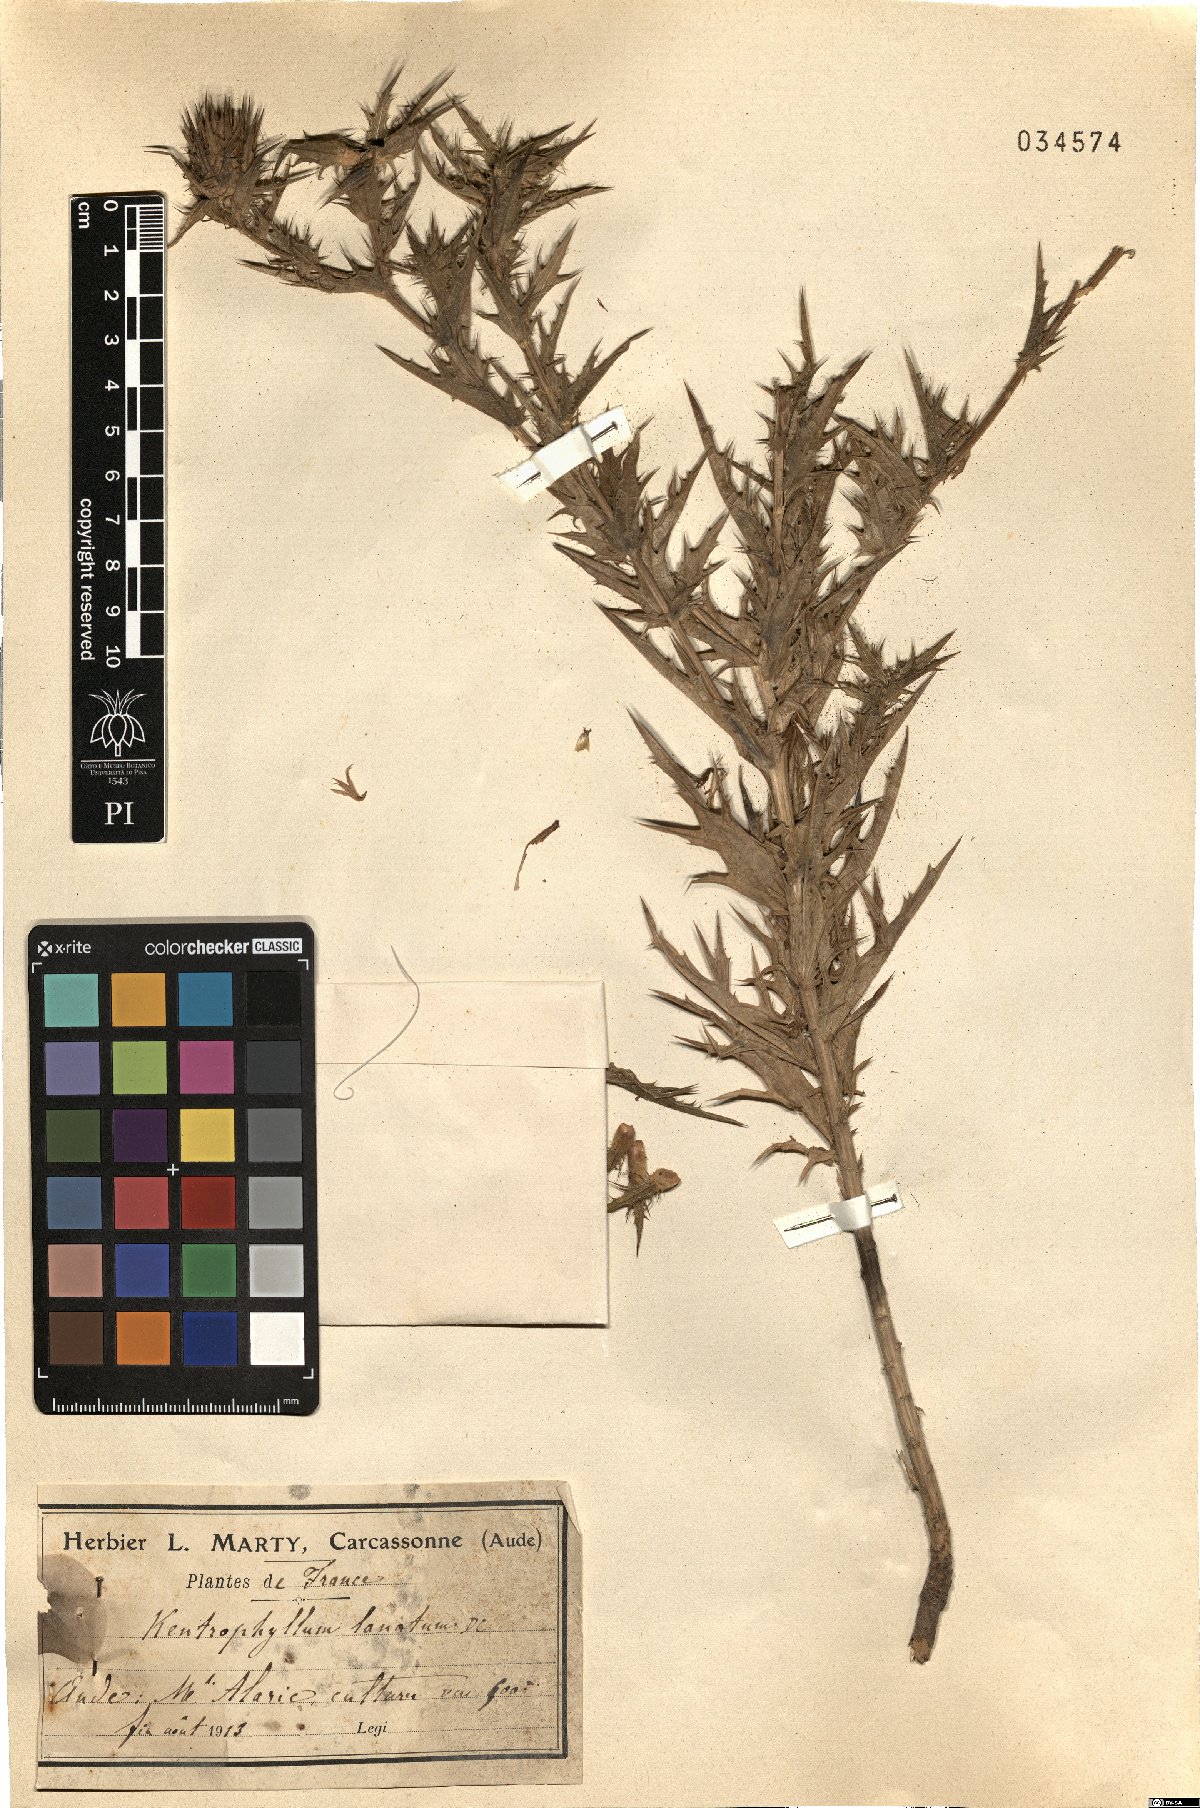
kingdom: Plantae
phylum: Tracheophyta
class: Magnoliopsida
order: Asterales
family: Asteraceae
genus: Carthamus
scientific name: Carthamus lanatus
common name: Downy safflower
